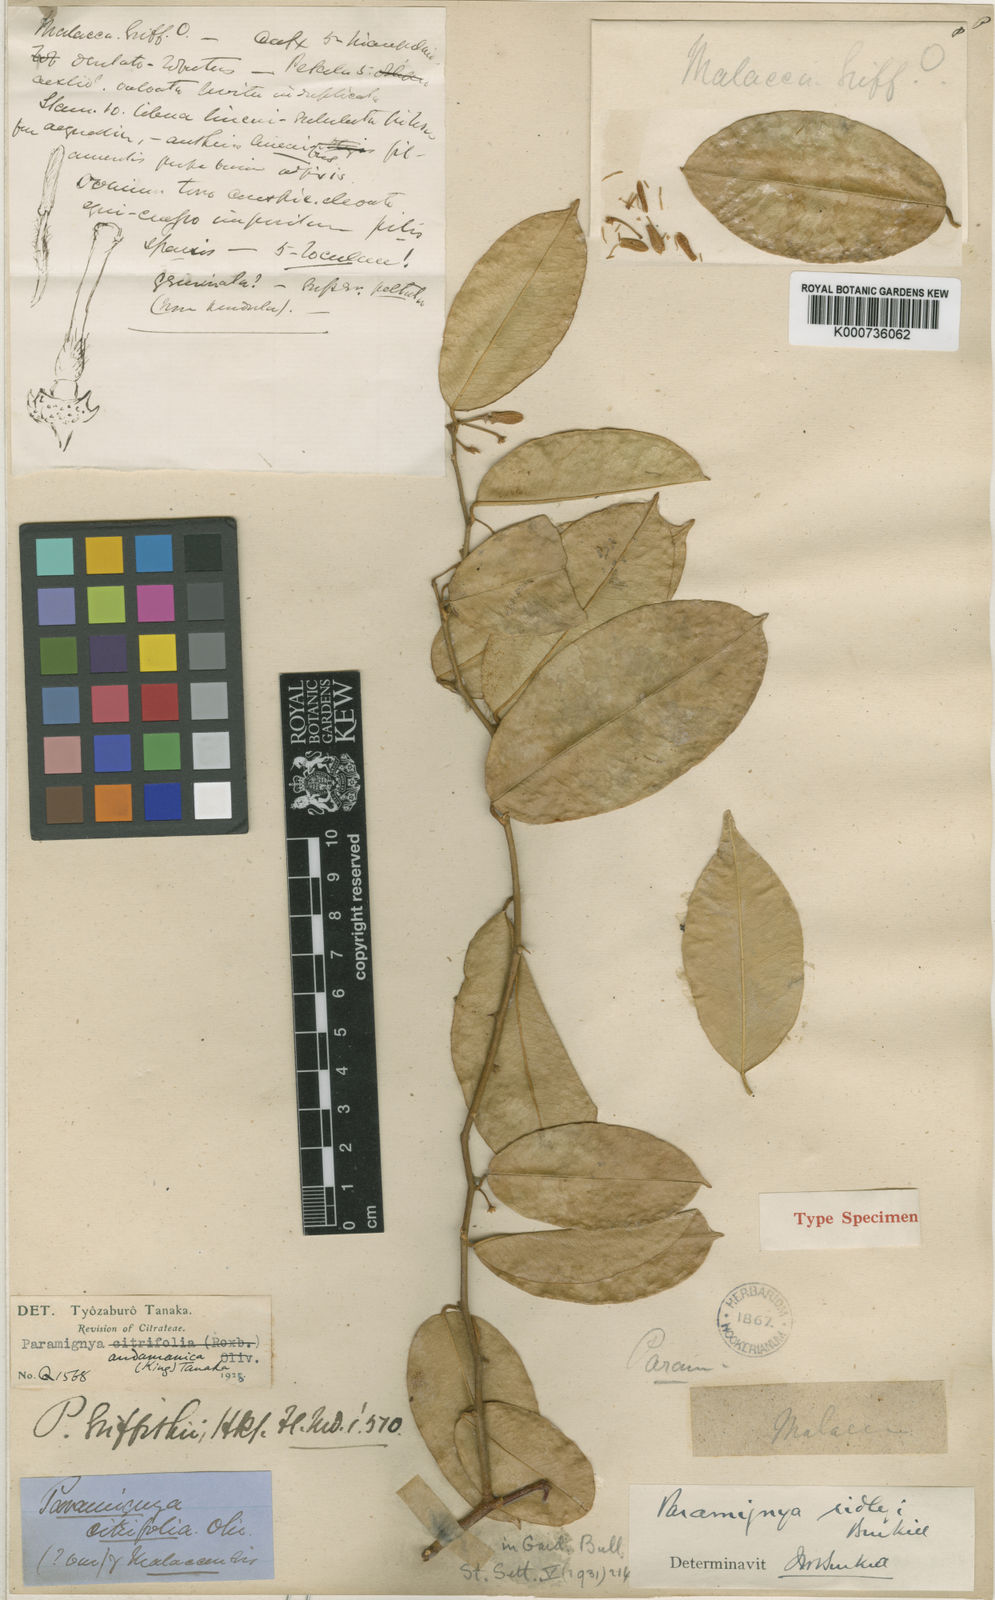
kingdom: Plantae
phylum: Tracheophyta
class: Magnoliopsida
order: Sapindales
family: Rutaceae
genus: Paramignya
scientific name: Paramignya scandens
